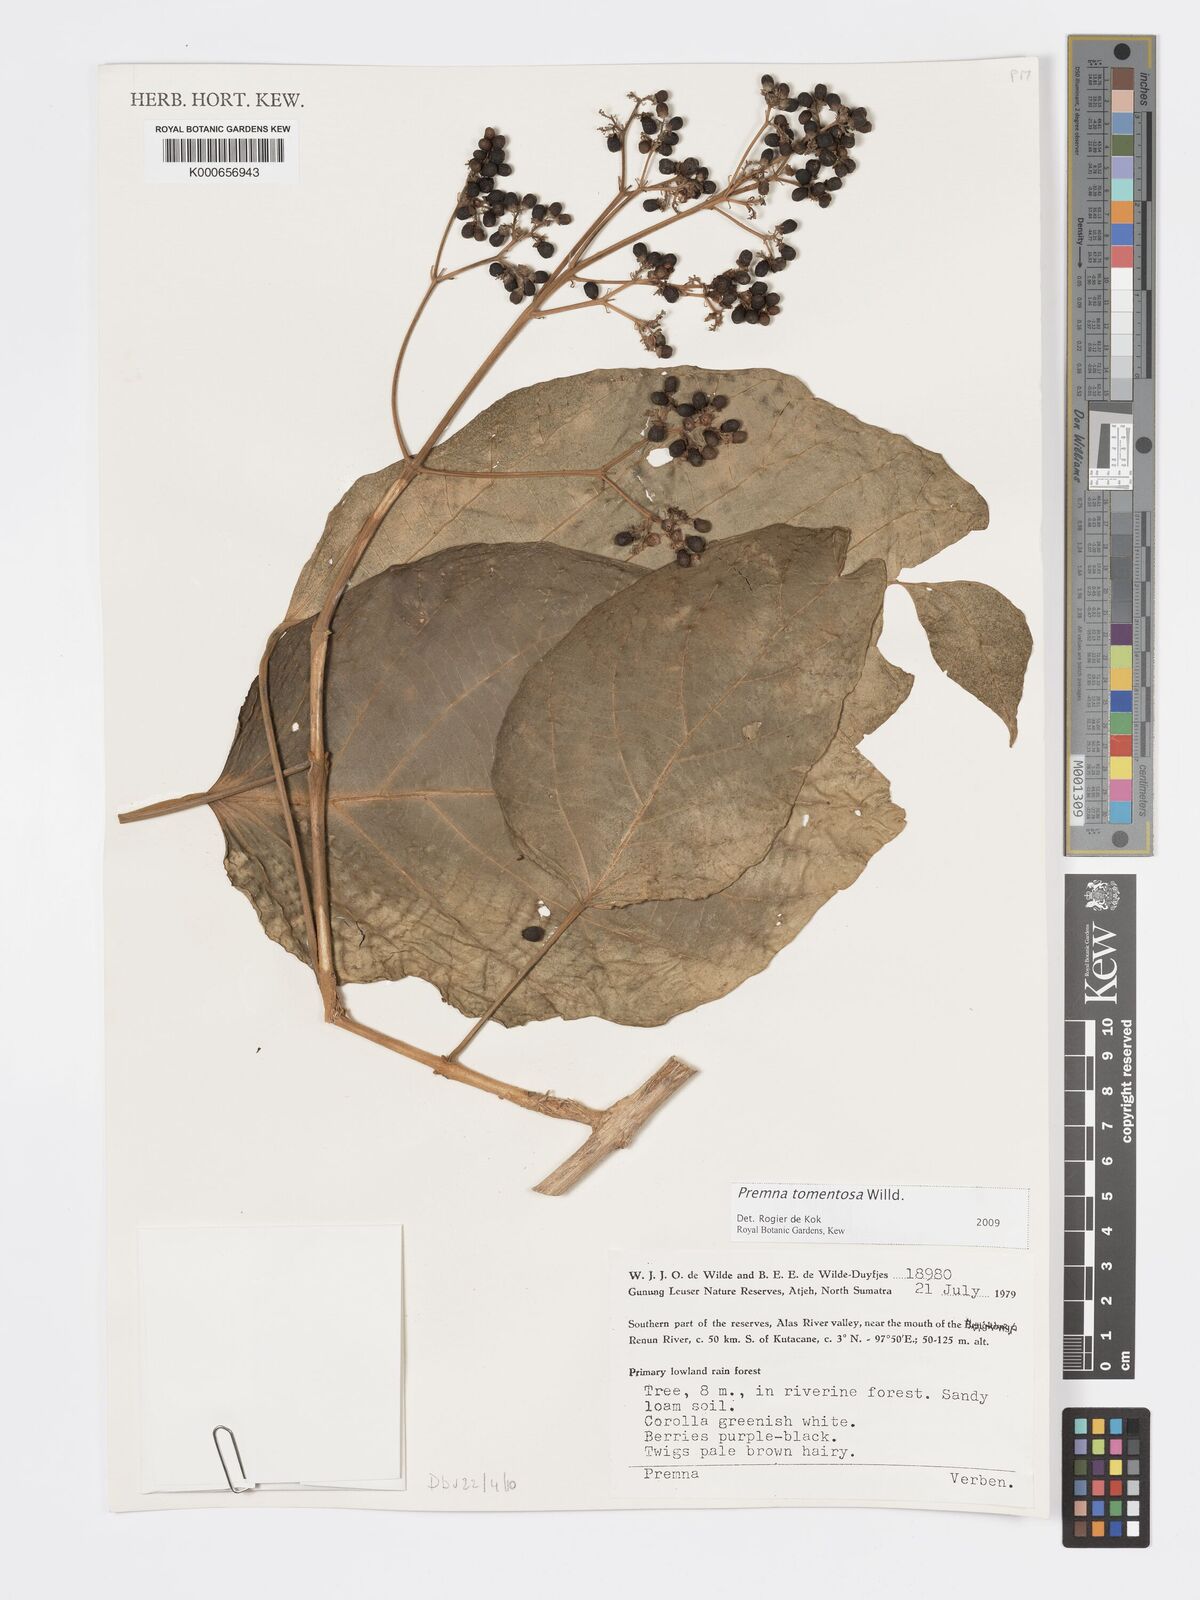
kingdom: Plantae
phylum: Tracheophyta
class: Magnoliopsida
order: Lamiales
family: Lamiaceae
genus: Premna
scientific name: Premna tomentosa
